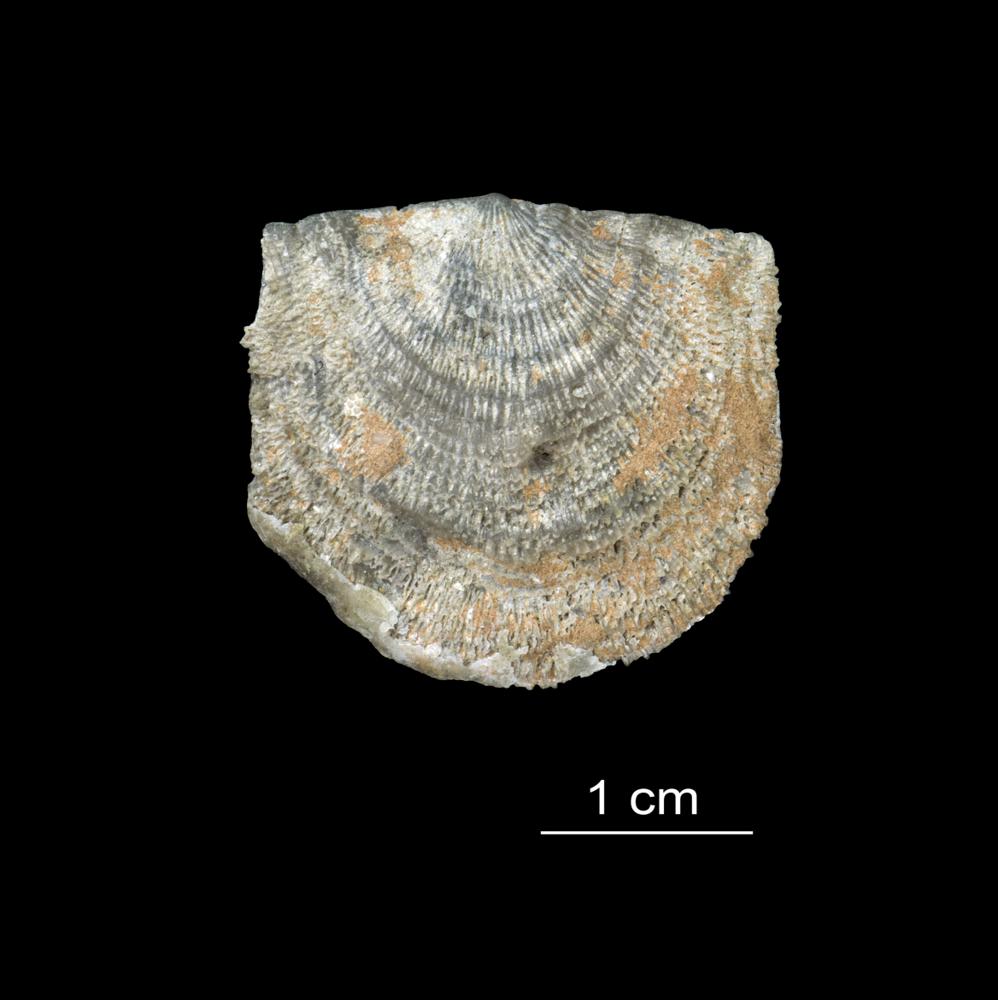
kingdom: Animalia
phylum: Brachiopoda
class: Rhynchonellata
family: Clitambonitidae
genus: Clitambonites
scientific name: Clitambonites squamatus
